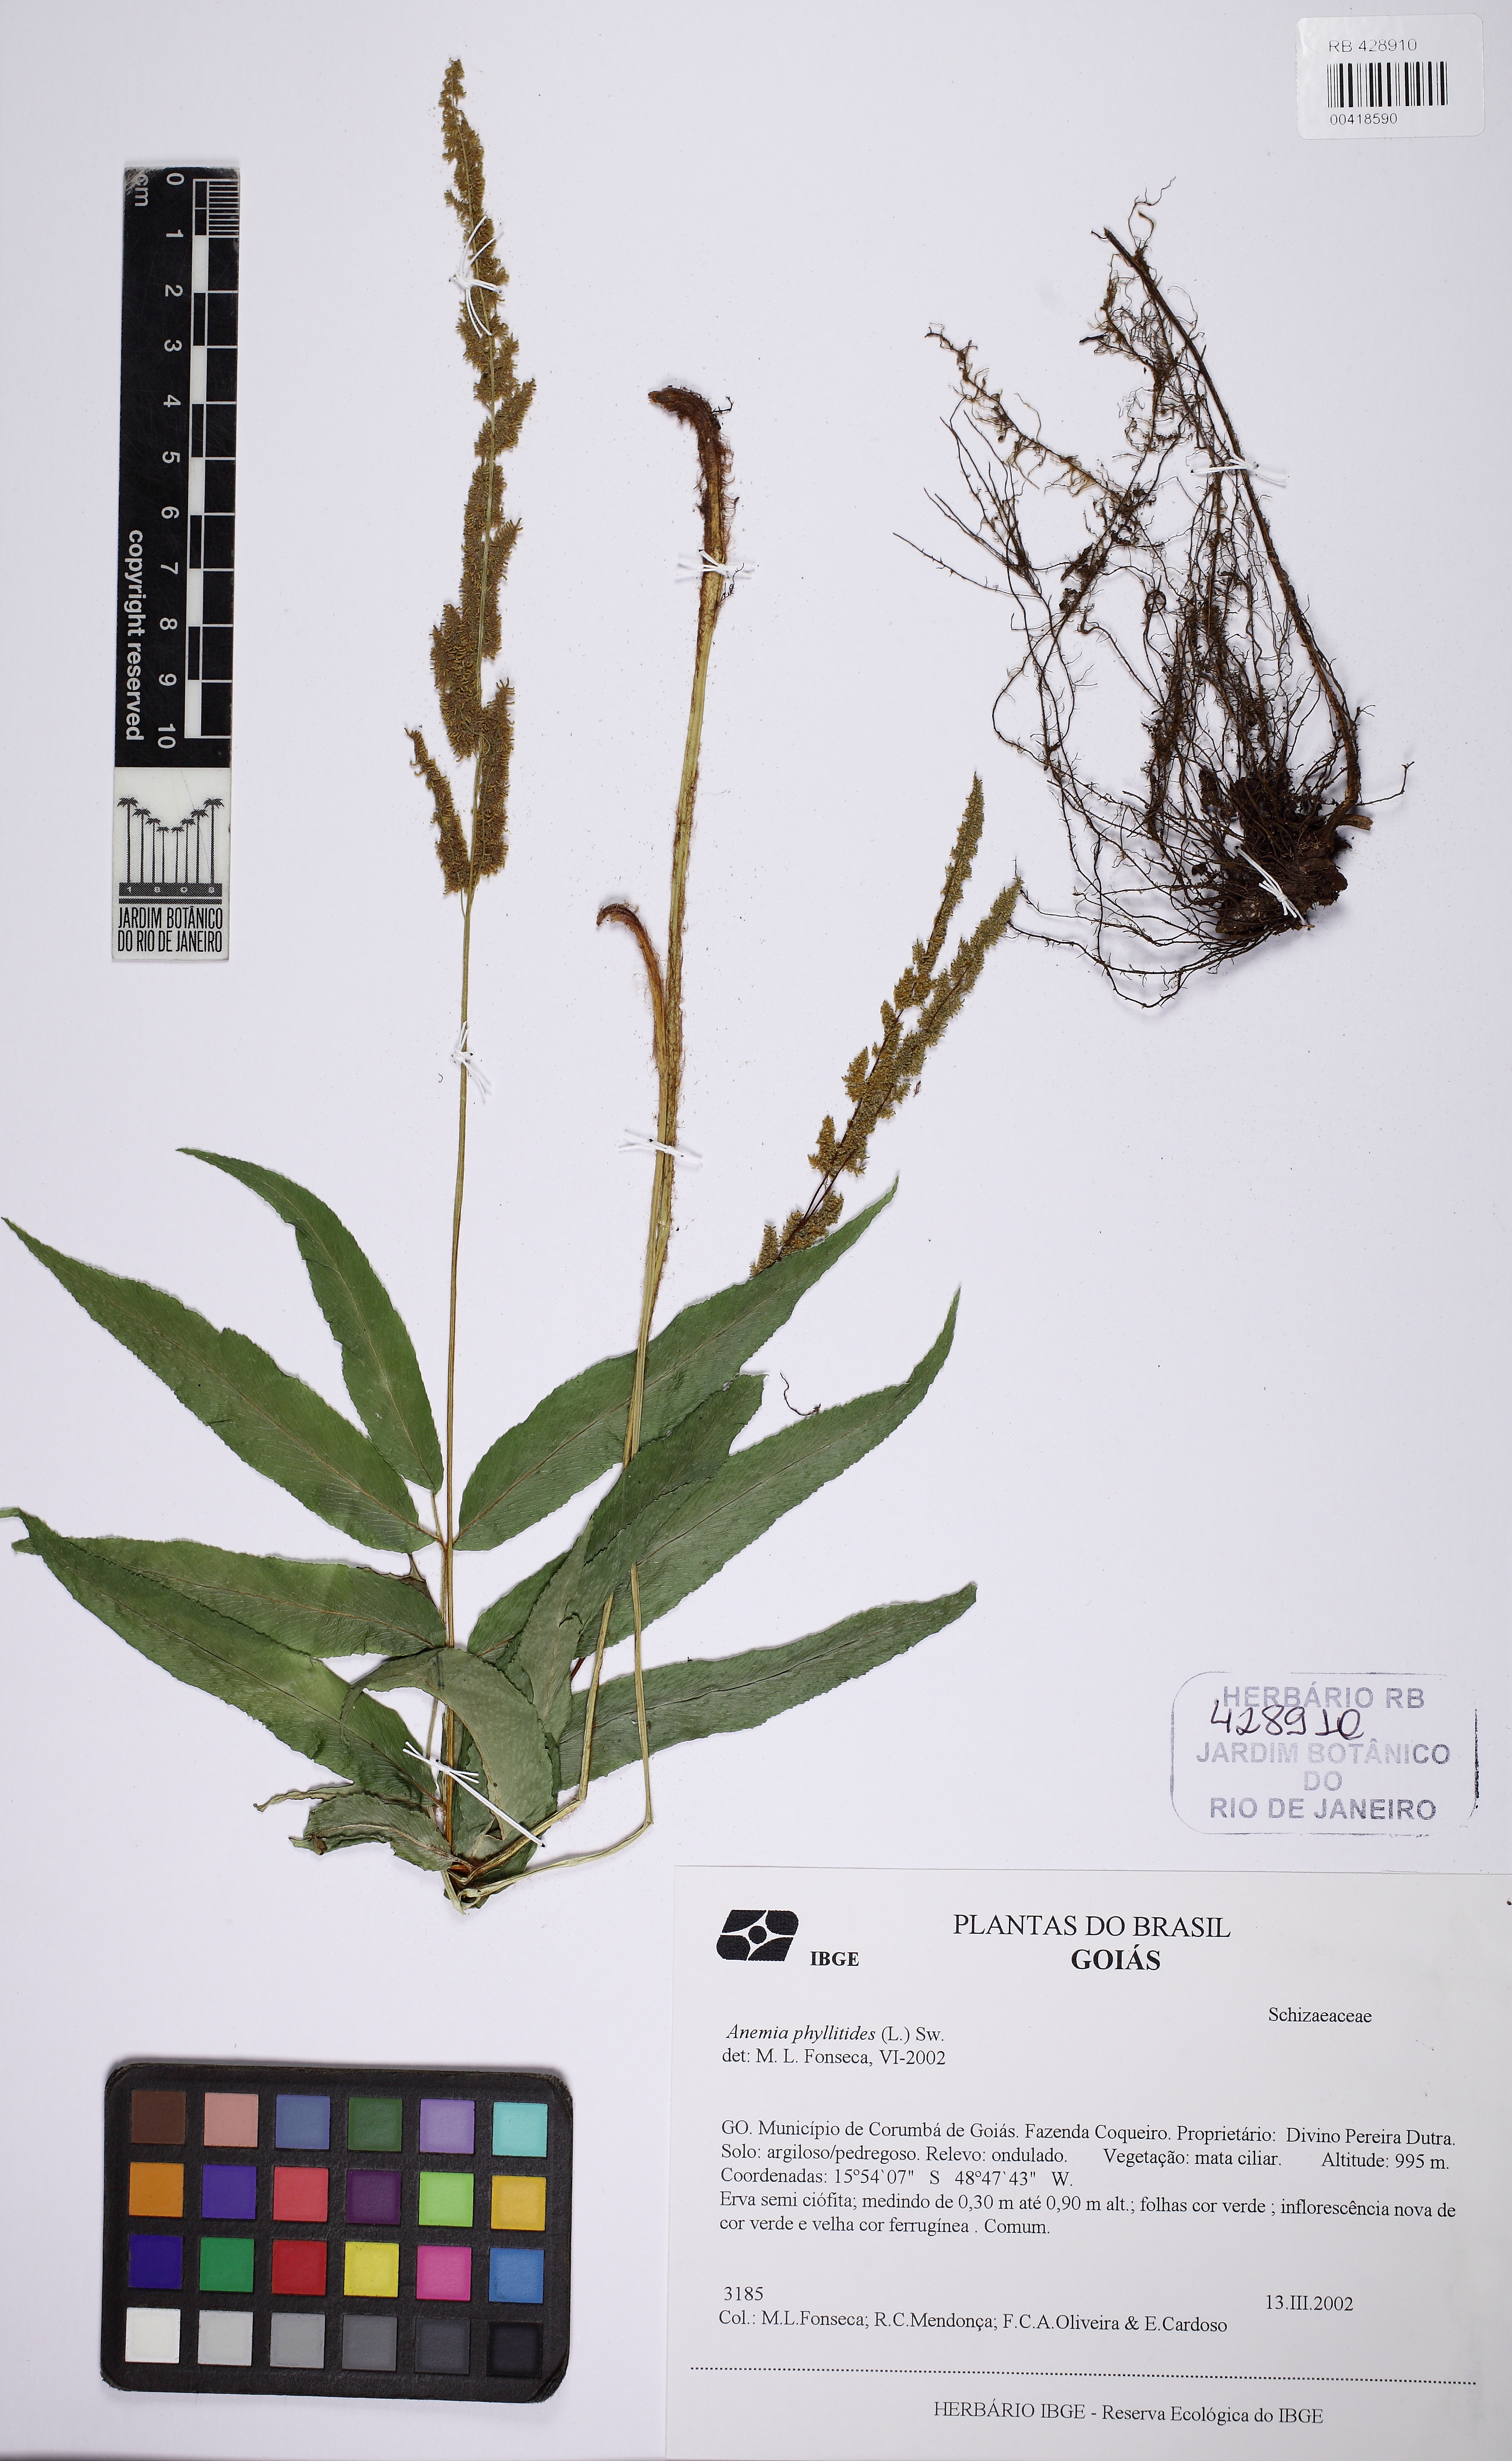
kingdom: Plantae
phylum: Tracheophyta
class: Polypodiopsida
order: Schizaeales
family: Anemiaceae
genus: Anemia
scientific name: Anemia phyllitidis
